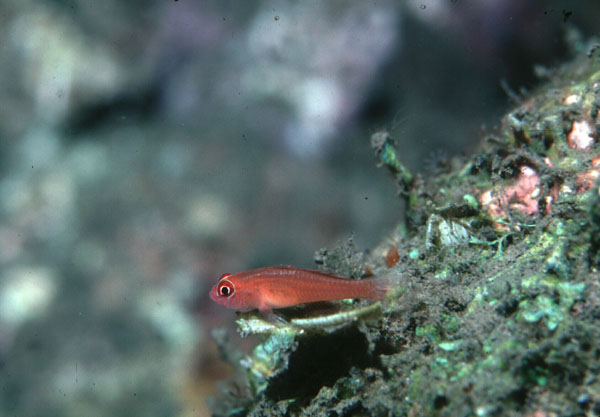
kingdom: Animalia
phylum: Chordata
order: Perciformes
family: Gobiidae
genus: Trimma
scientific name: Trimma benjamini
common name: Redface dwarfgoby
